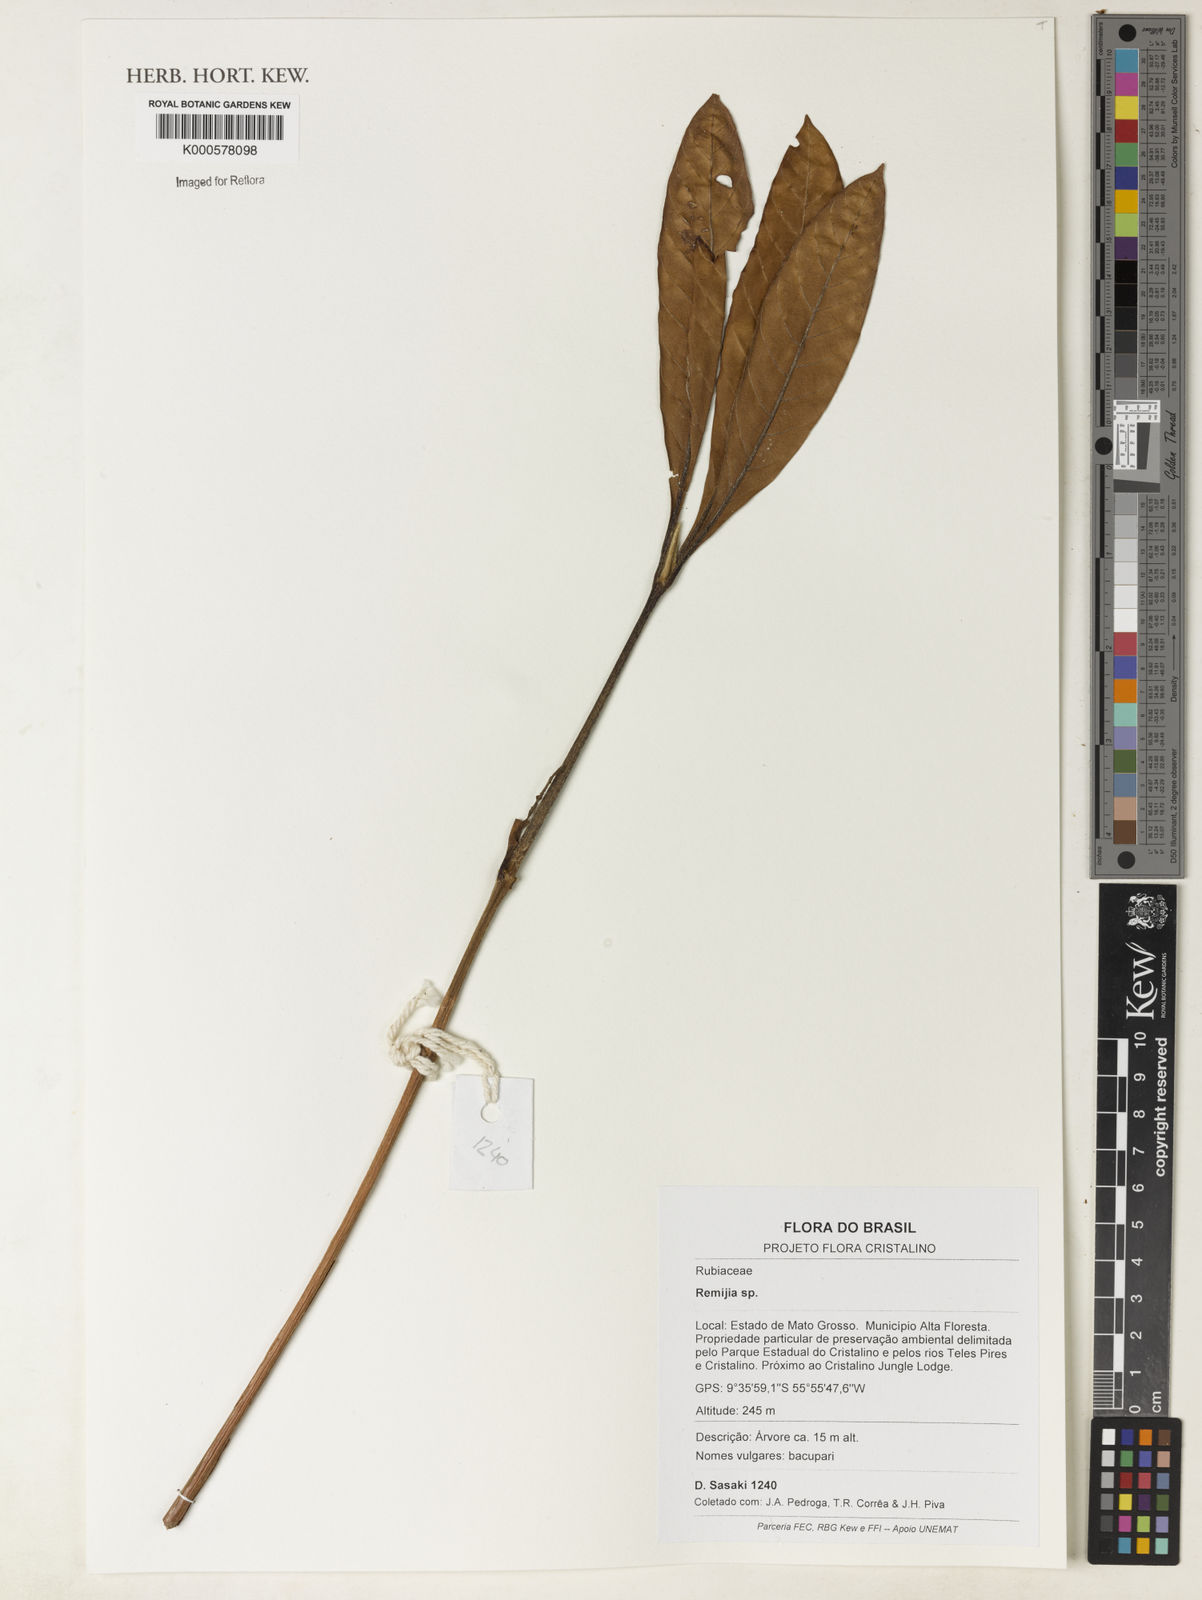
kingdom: Plantae
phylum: Tracheophyta
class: Magnoliopsida
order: Gentianales
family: Rubiaceae
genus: Remijia
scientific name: Remijia
